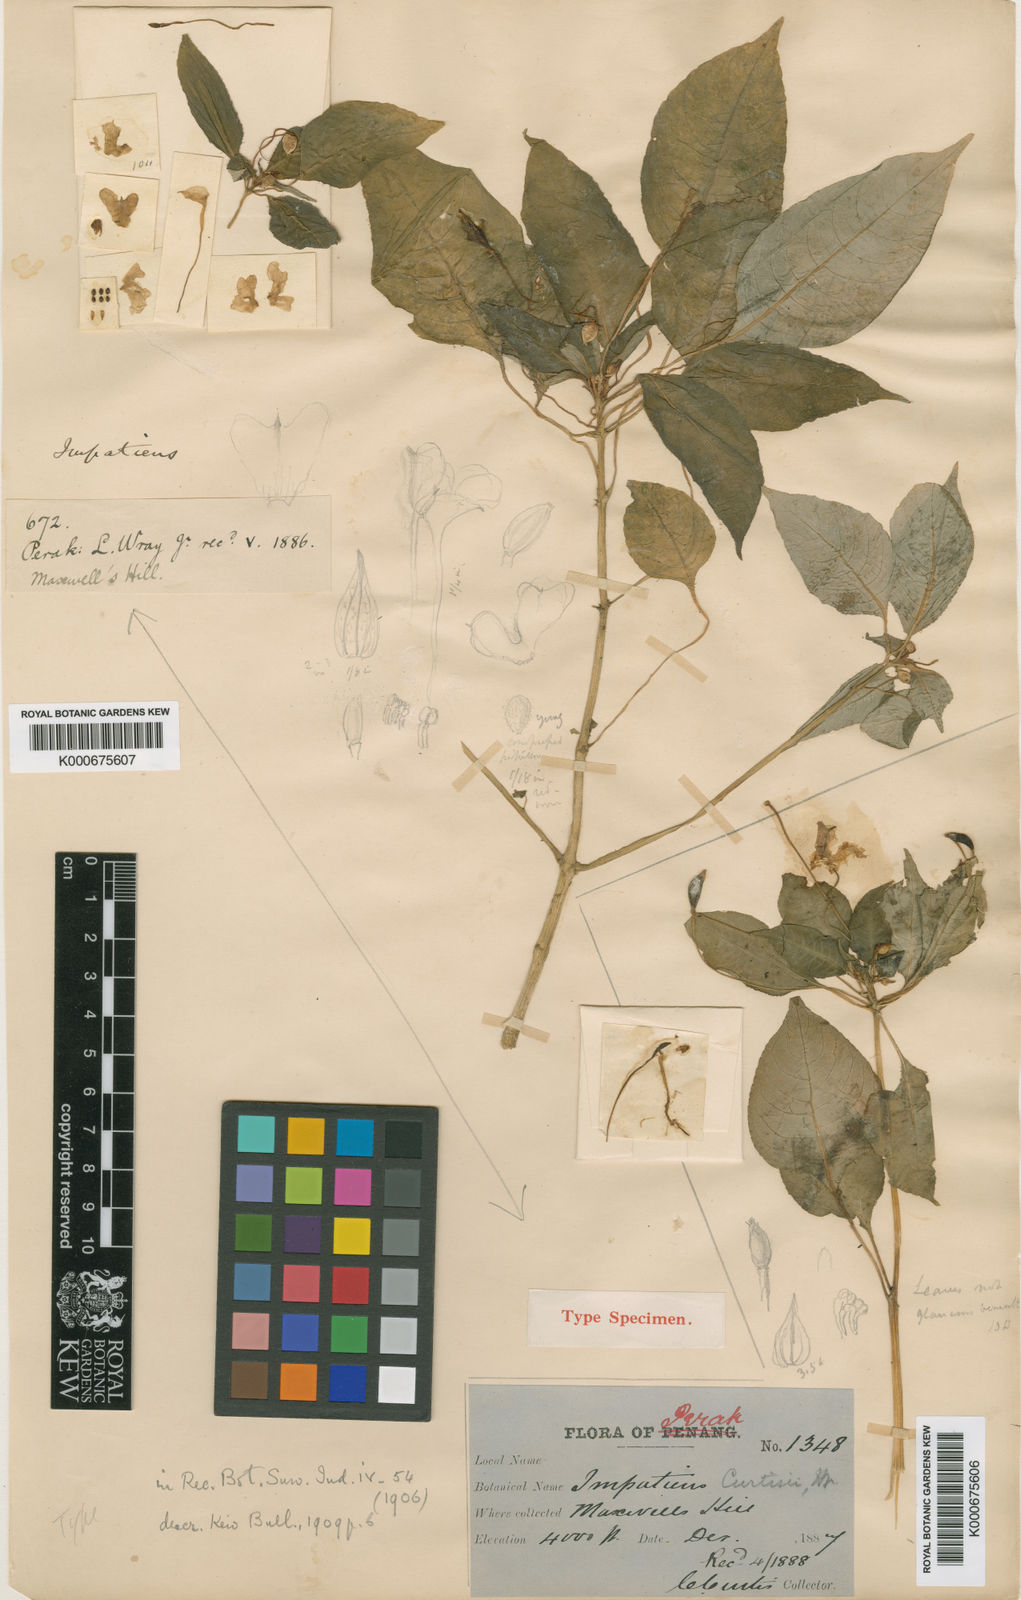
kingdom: Plantae
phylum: Tracheophyta
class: Magnoliopsida
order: Ericales
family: Balsaminaceae
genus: Impatiens
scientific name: Impatiens curtisii
